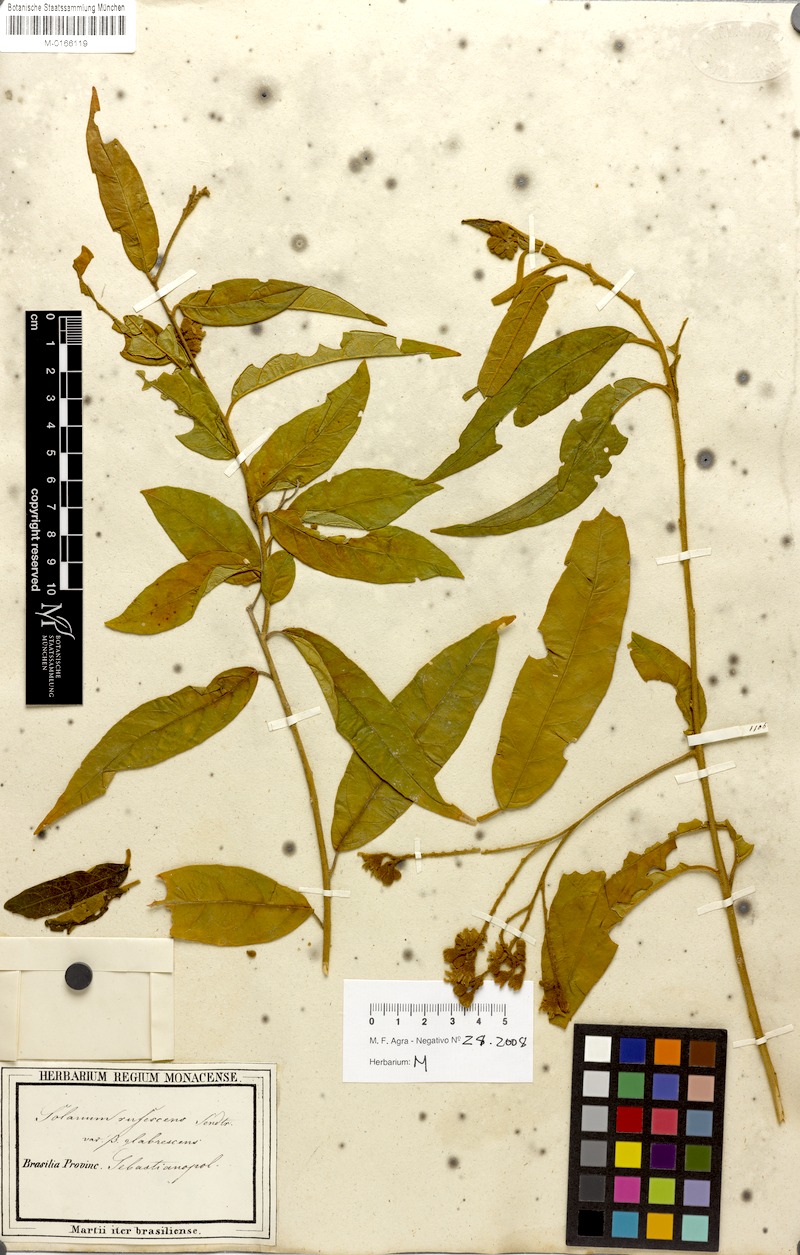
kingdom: Plantae
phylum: Tracheophyta
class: Magnoliopsida
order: Solanales
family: Solanaceae
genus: Solanum
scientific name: Solanum rufescens
